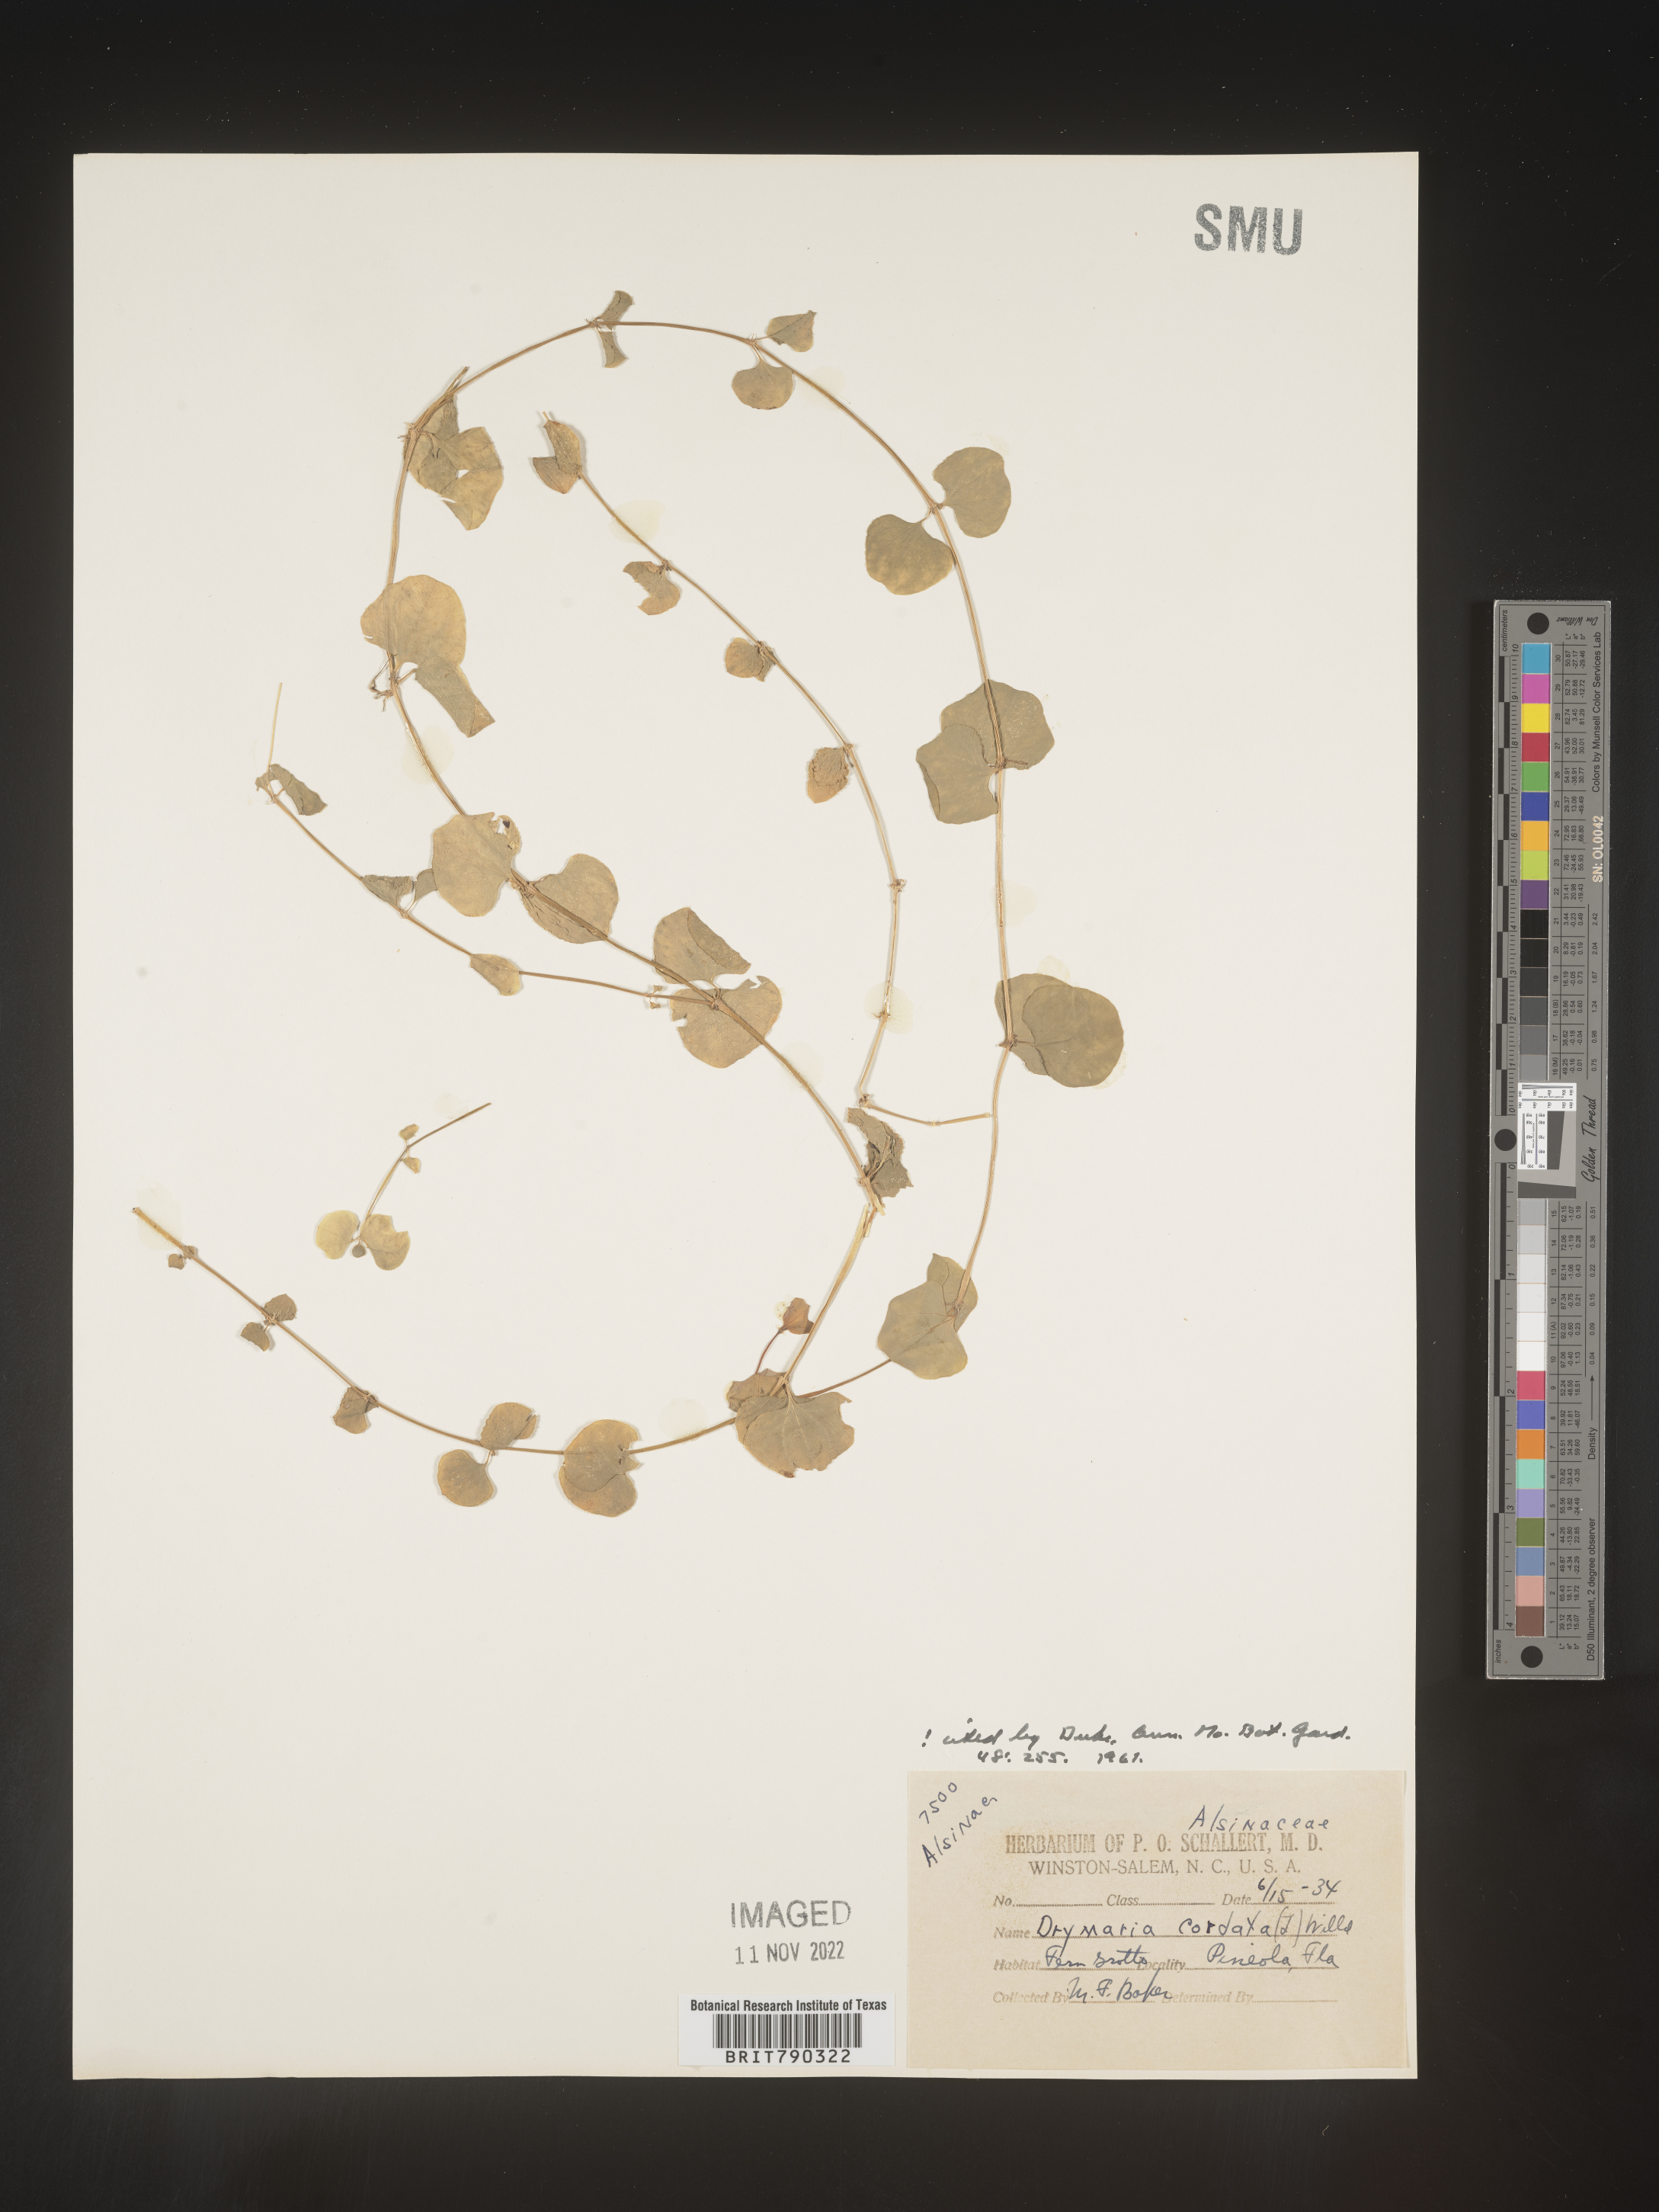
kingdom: Plantae
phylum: Tracheophyta
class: Magnoliopsida
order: Caryophyllales
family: Caryophyllaceae
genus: Drymaria
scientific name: Drymaria
